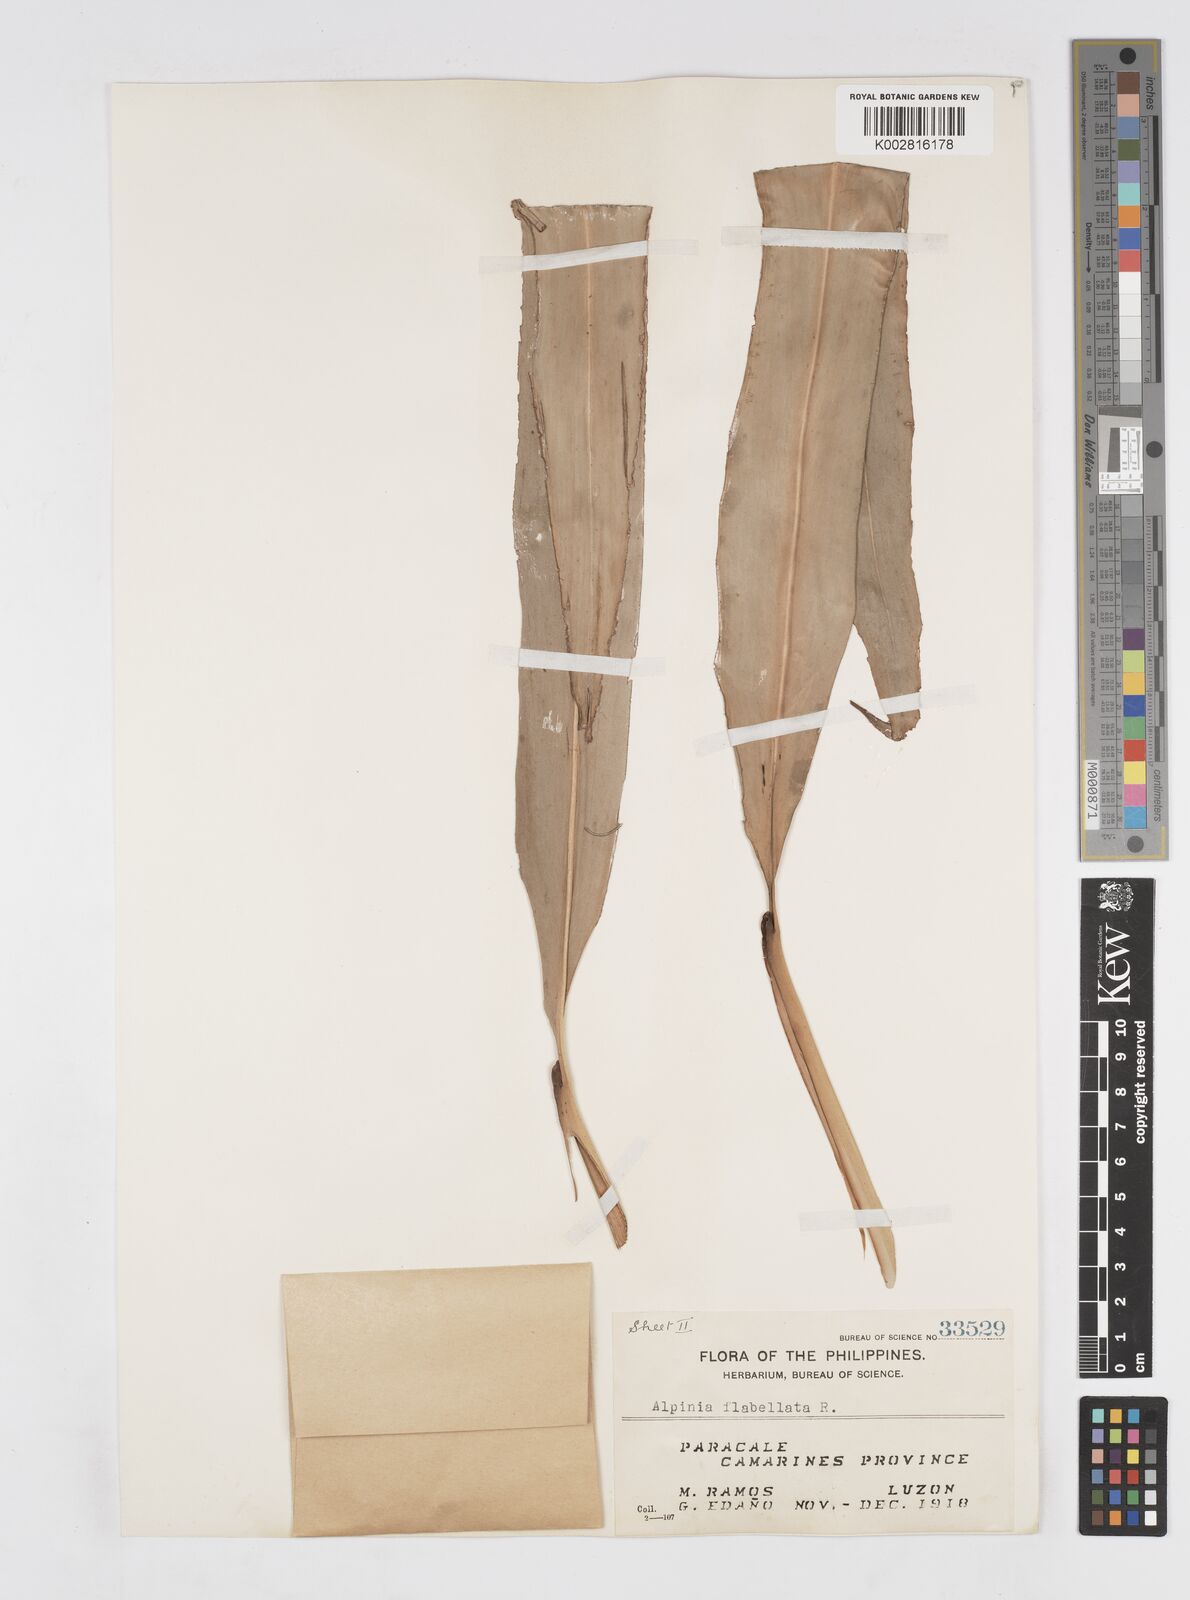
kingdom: Plantae
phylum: Tracheophyta
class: Liliopsida
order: Zingiberales
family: Zingiberaceae
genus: Alpinia
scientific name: Alpinia flabellata
